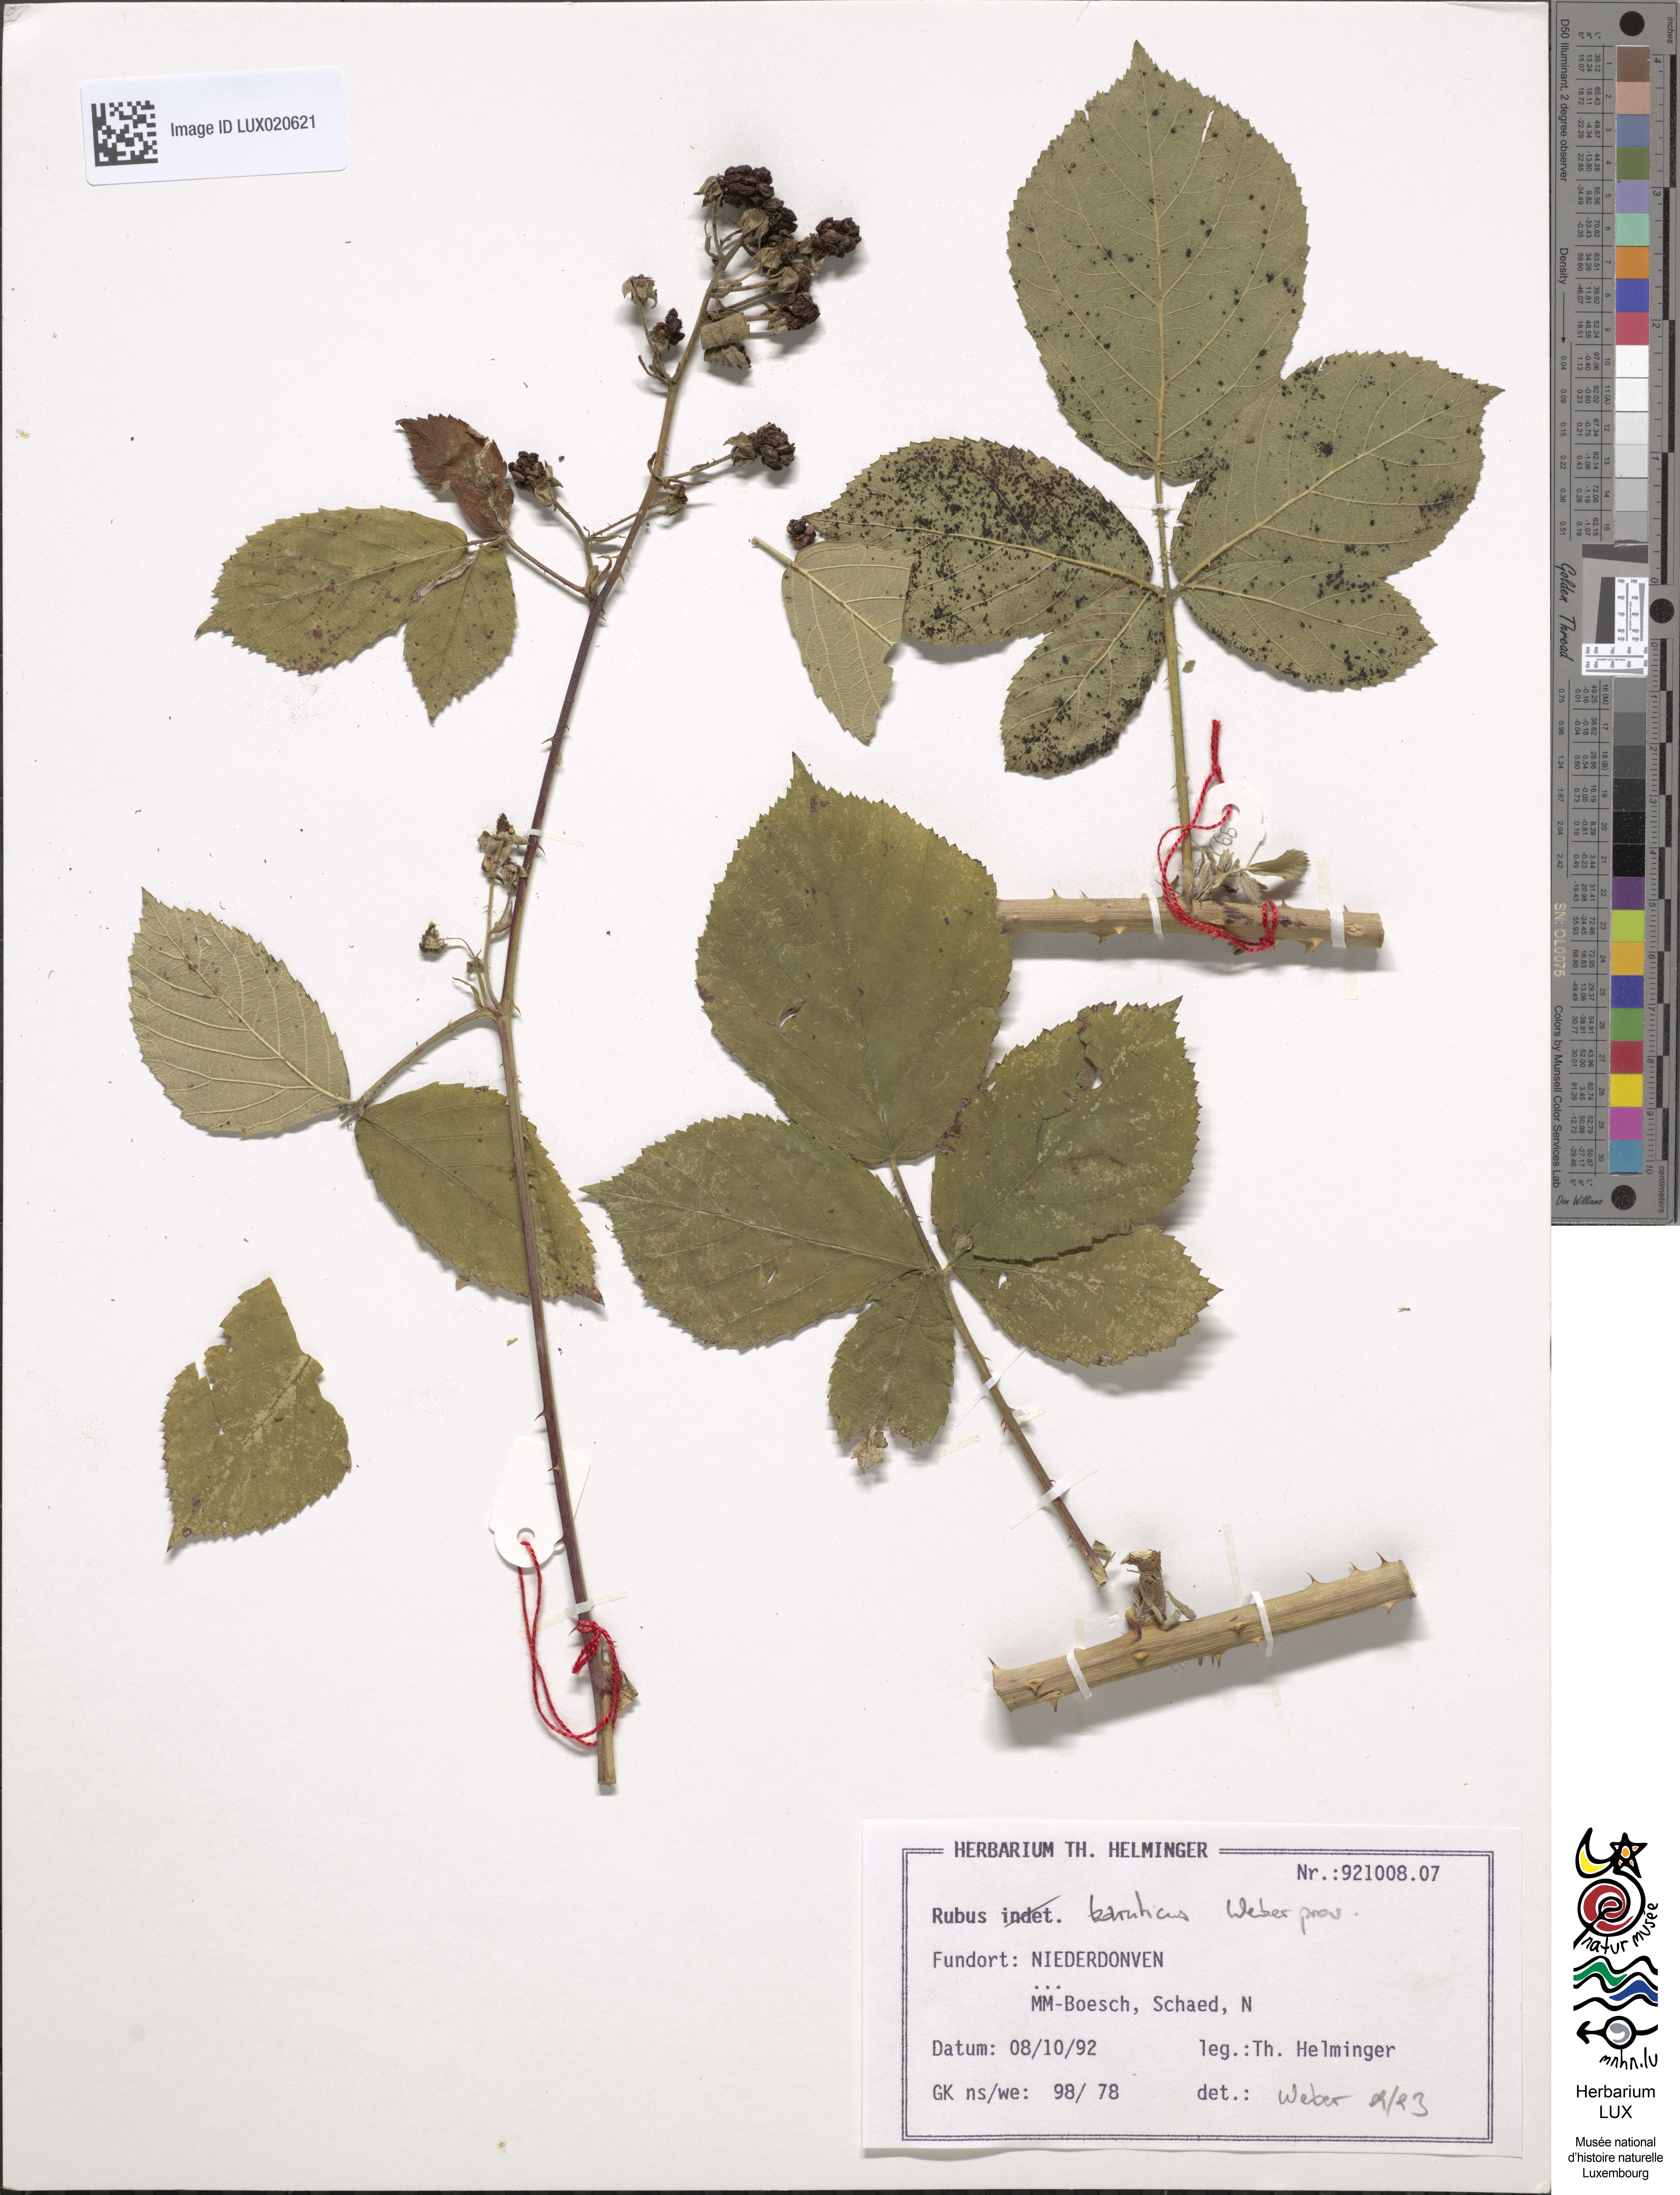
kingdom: Plantae
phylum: Tracheophyta
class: Magnoliopsida
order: Rosales
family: Rosaceae
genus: Rubus
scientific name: Rubus macrostemonides
